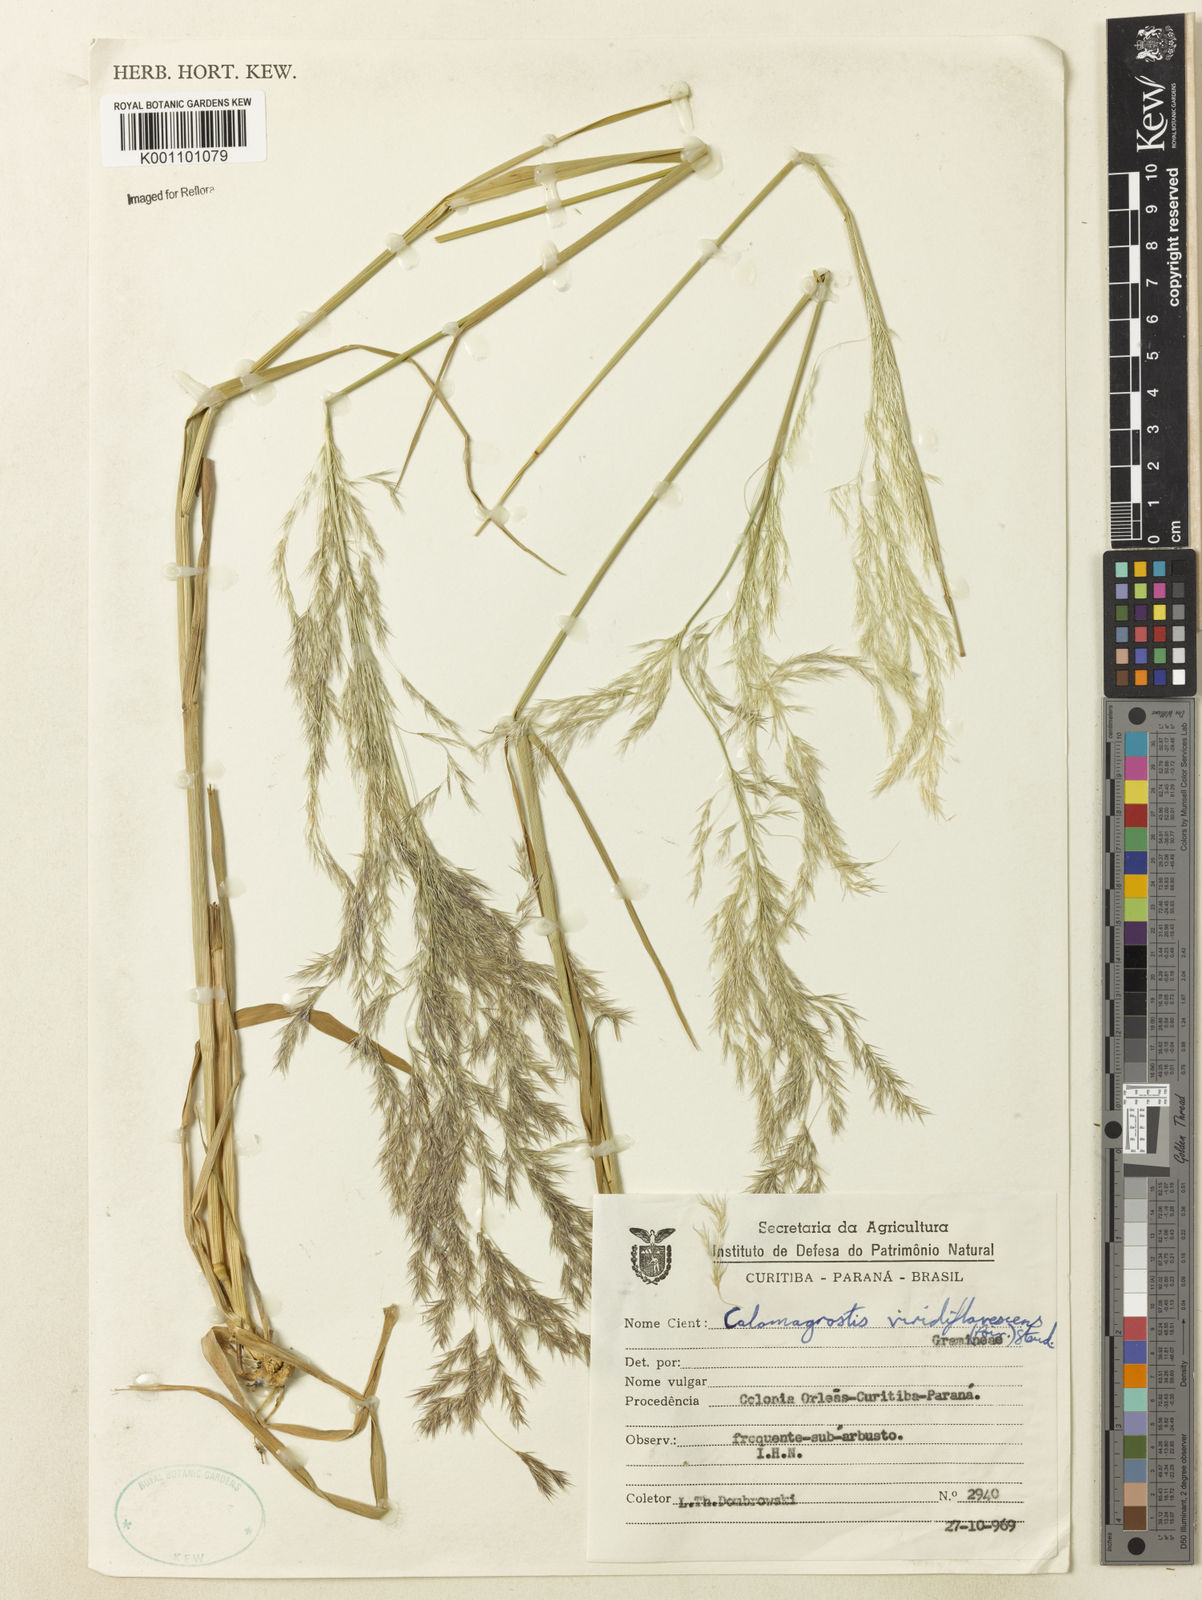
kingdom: Plantae
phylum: Tracheophyta
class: Liliopsida
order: Poales
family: Poaceae
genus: Cinnagrostis
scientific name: Cinnagrostis viridiflavescens
